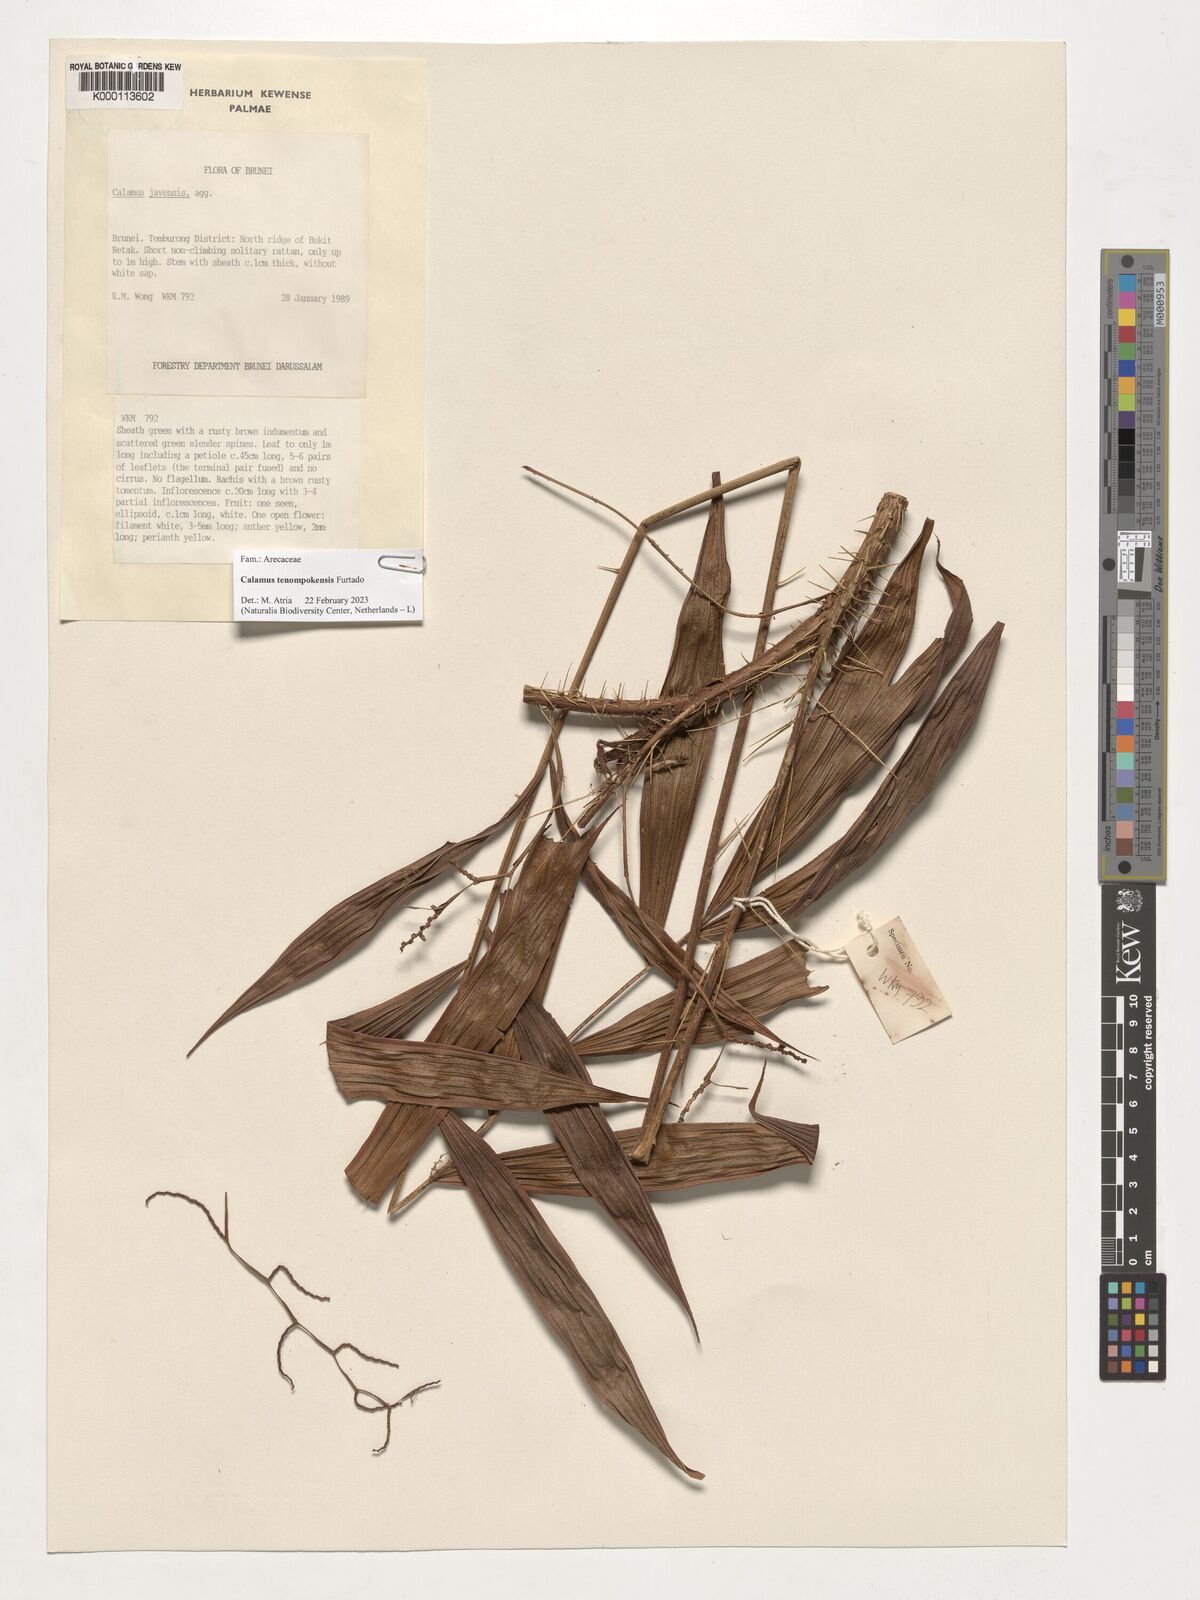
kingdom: Plantae
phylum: Tracheophyta
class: Liliopsida
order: Arecales
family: Arecaceae
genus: Calamus
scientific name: Calamus tenompokensis
